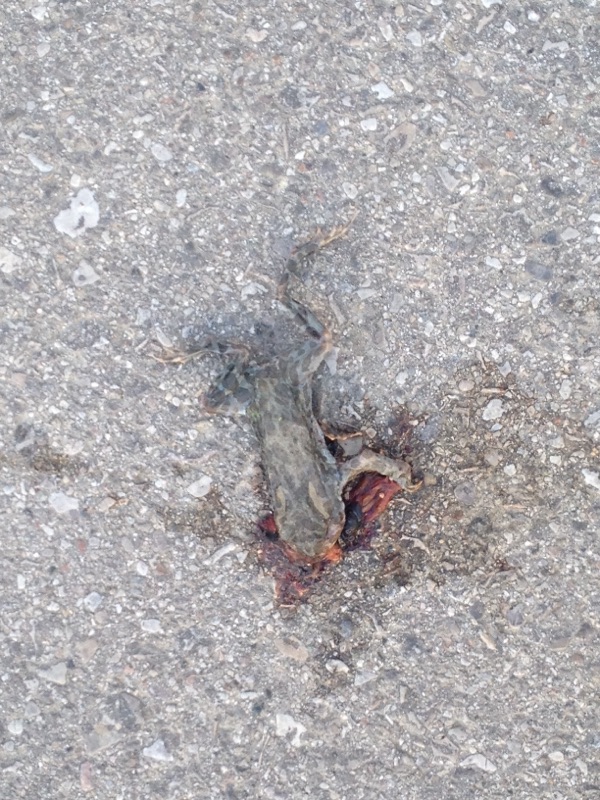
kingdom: Animalia
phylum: Chordata
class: Amphibia
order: Anura
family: Bufonidae
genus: Bufotes
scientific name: Bufotes viridis
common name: European green toad
